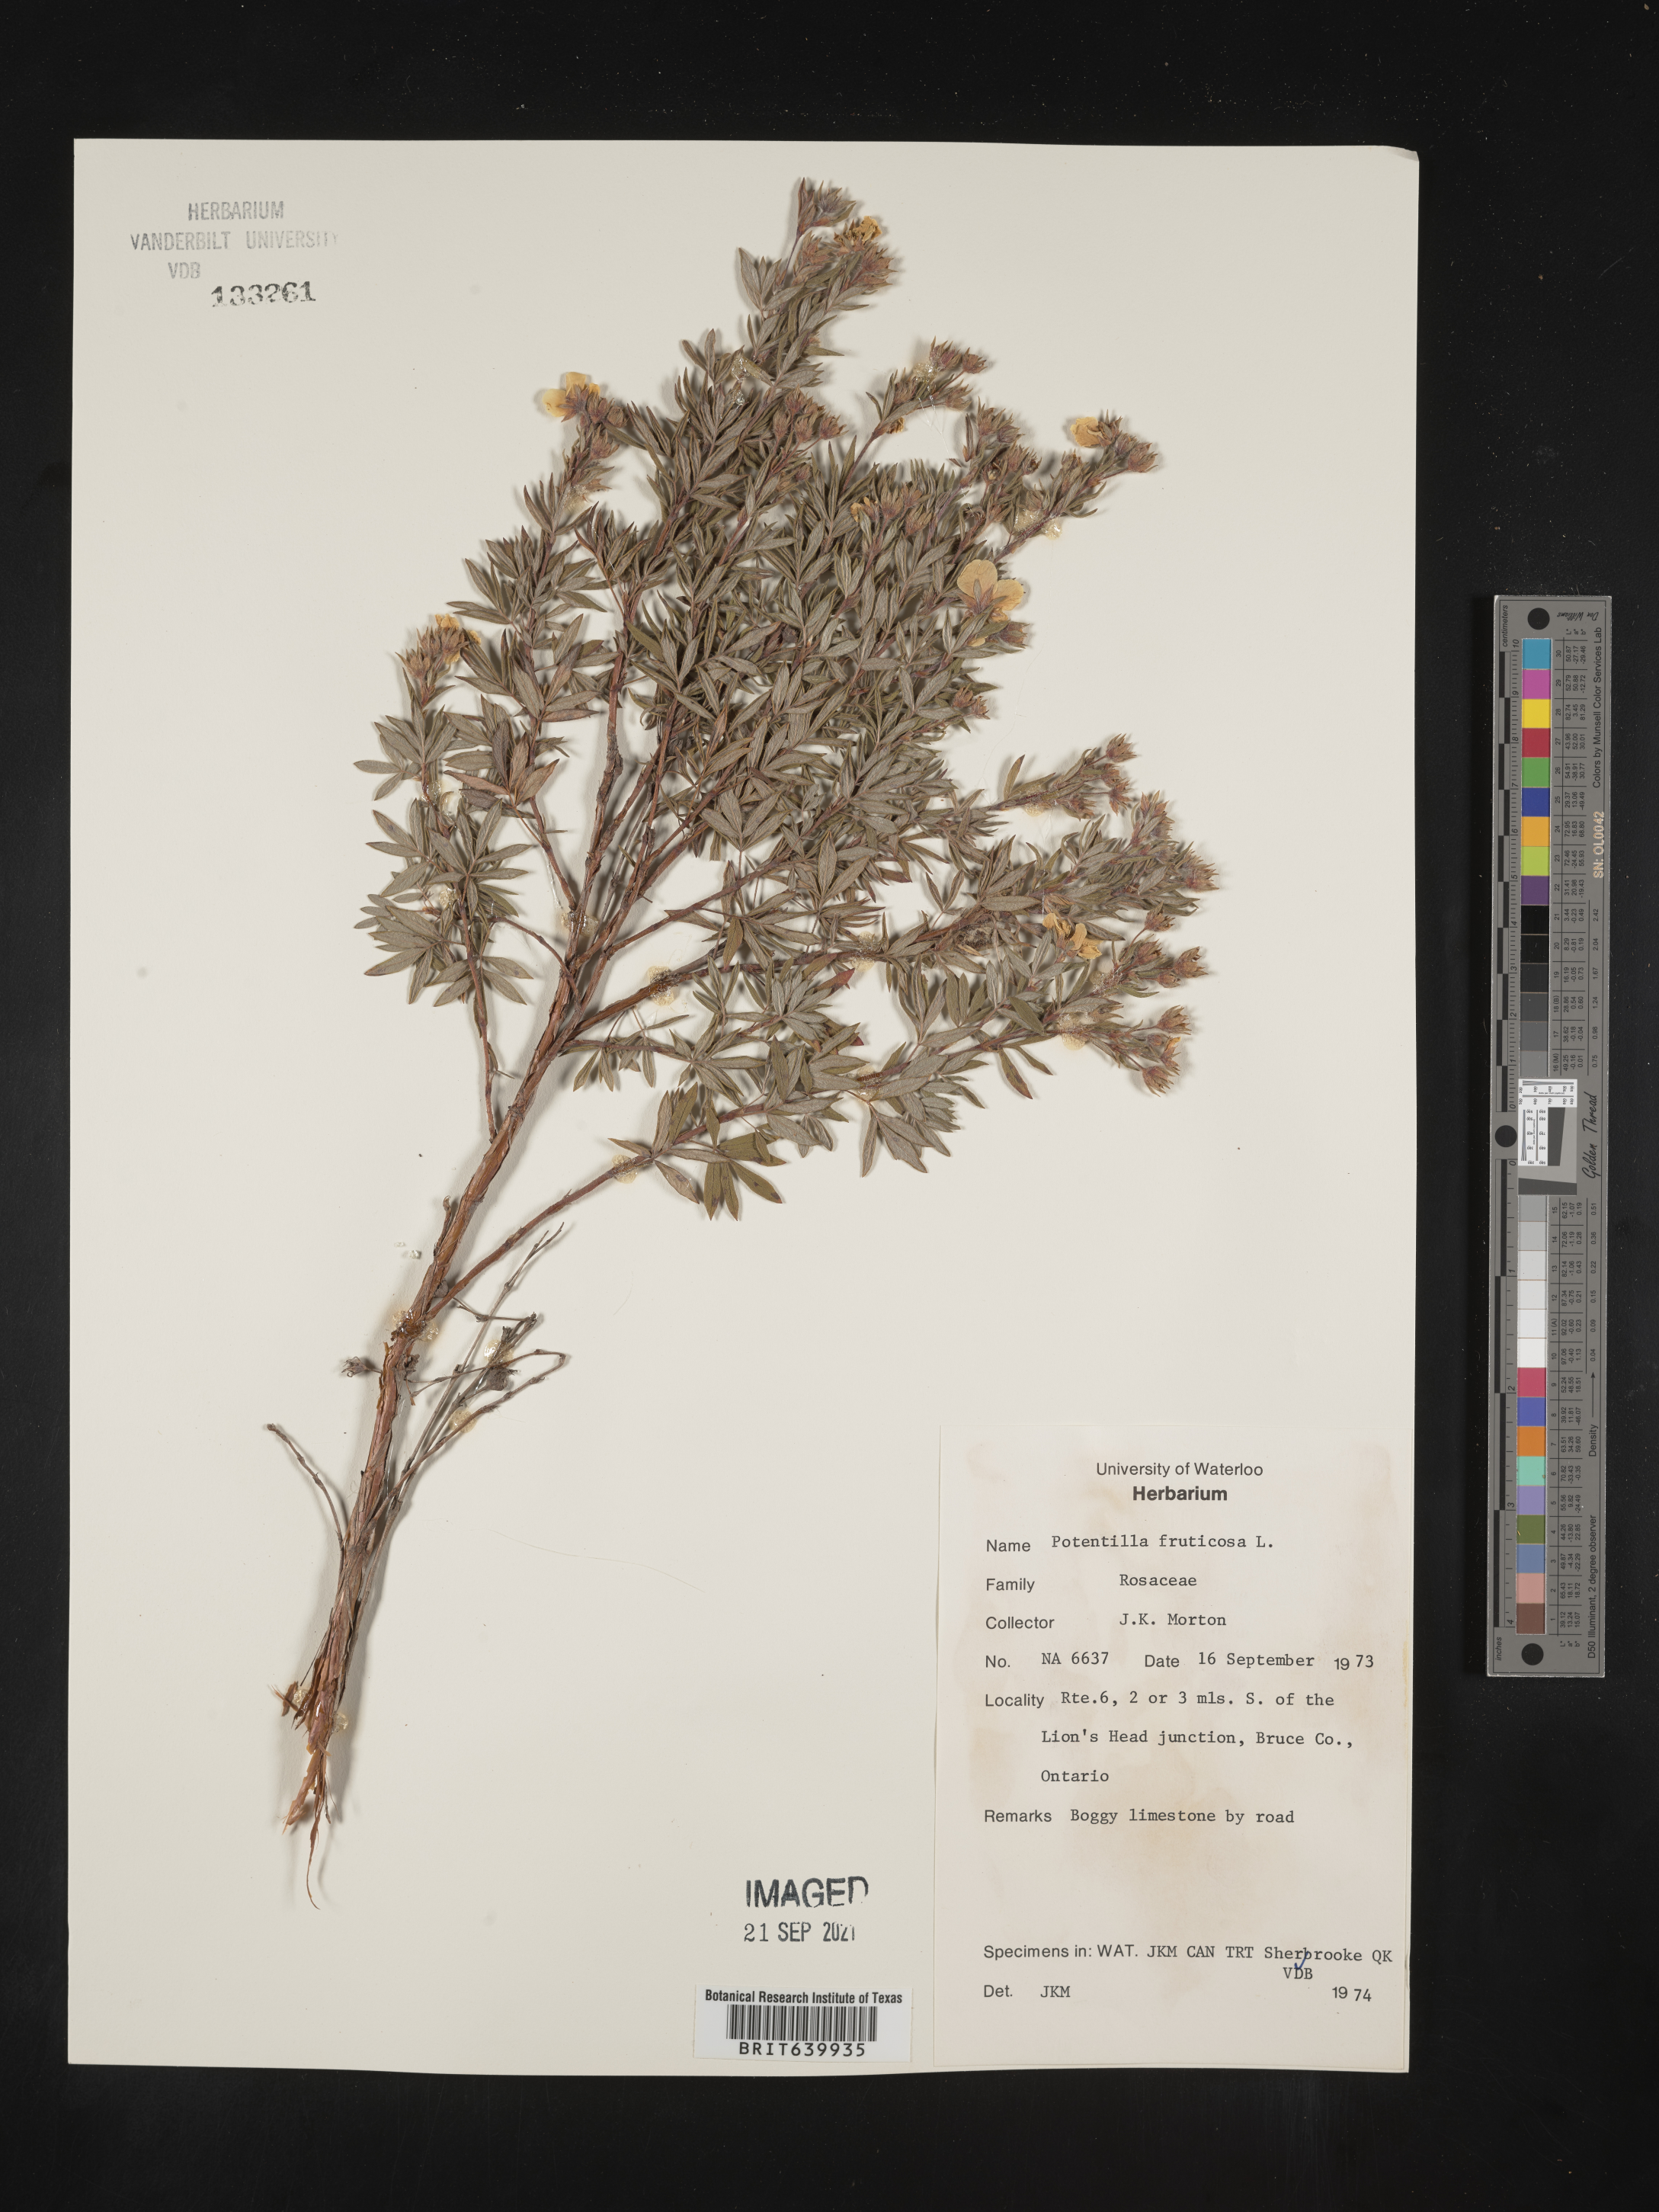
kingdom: Plantae
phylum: Tracheophyta
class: Magnoliopsida
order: Rosales
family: Rosaceae
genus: Potentilla
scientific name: Potentilla
